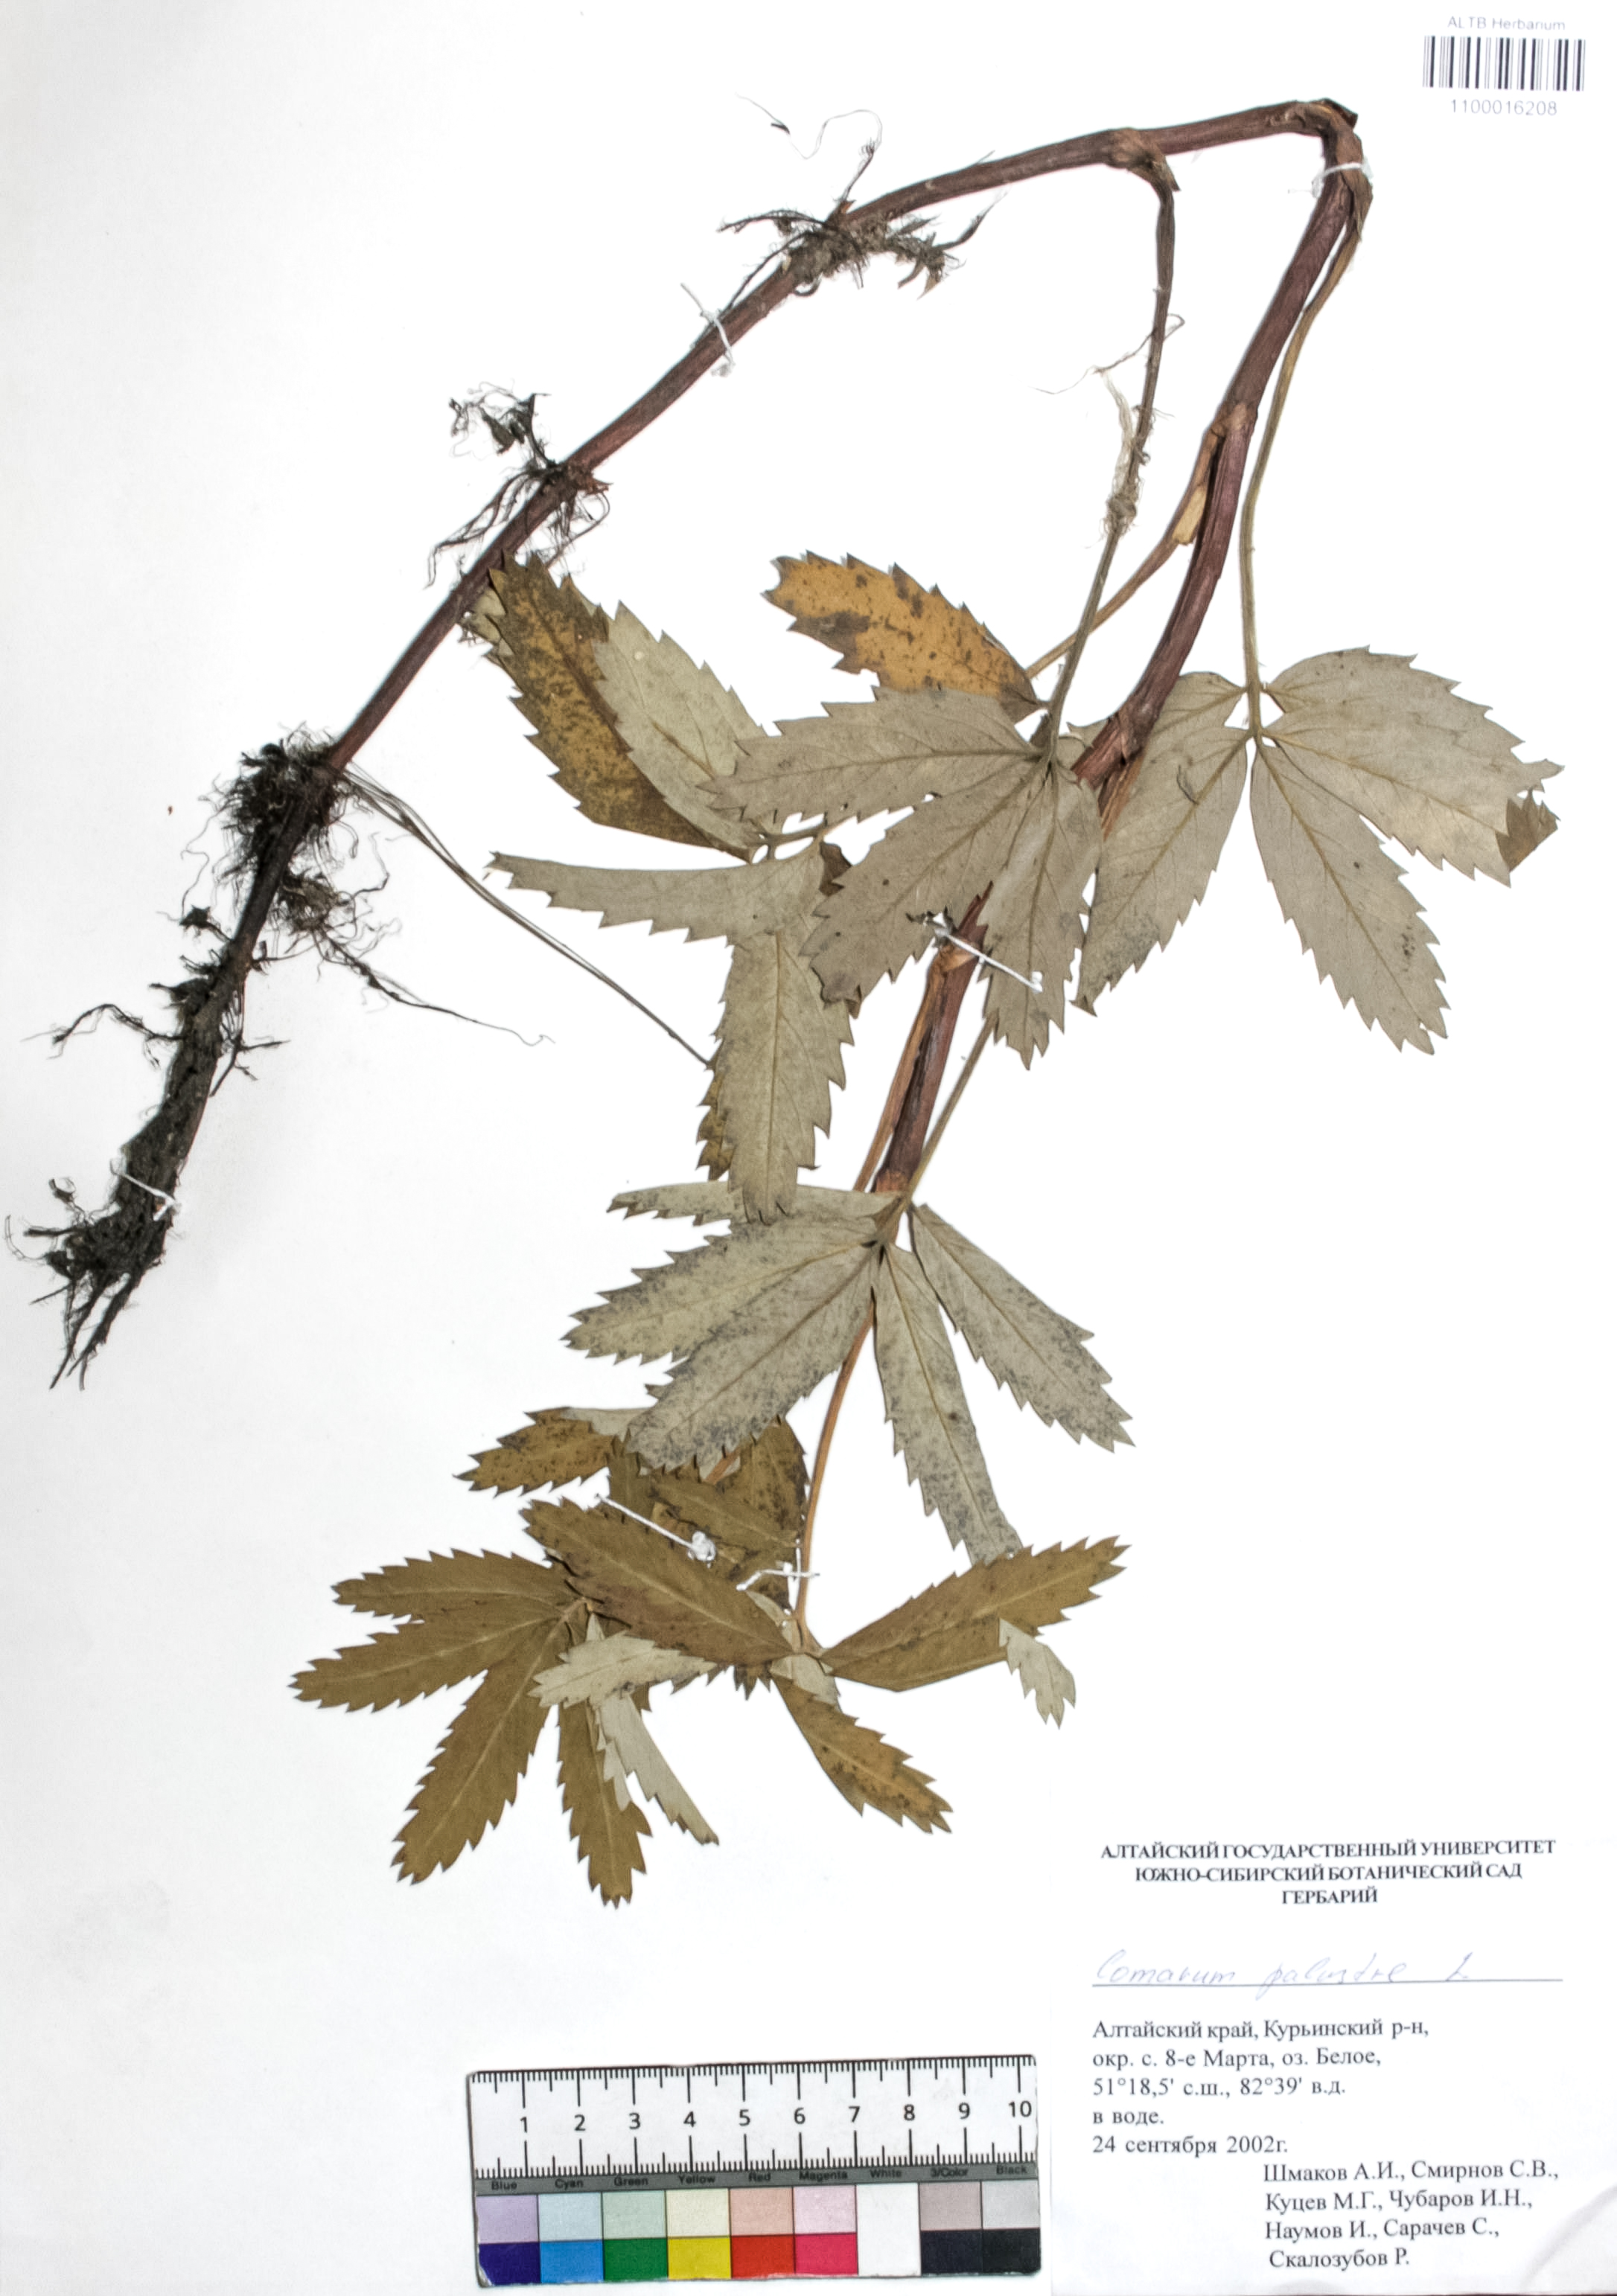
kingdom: Plantae
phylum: Tracheophyta
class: Magnoliopsida
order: Rosales
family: Rosaceae
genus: Comarum
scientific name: Comarum palustre
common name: Marsh cinquefoil
